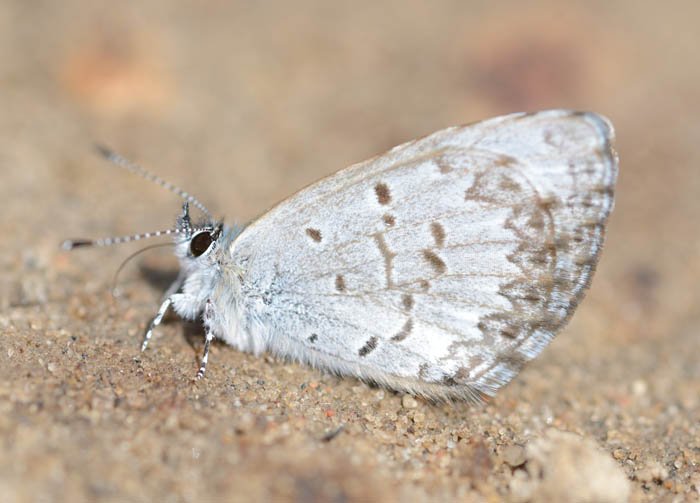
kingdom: Animalia
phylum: Arthropoda
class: Insecta
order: Lepidoptera
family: Lycaenidae
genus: Celastrina
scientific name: Celastrina lucia
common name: Northern Spring Azure
